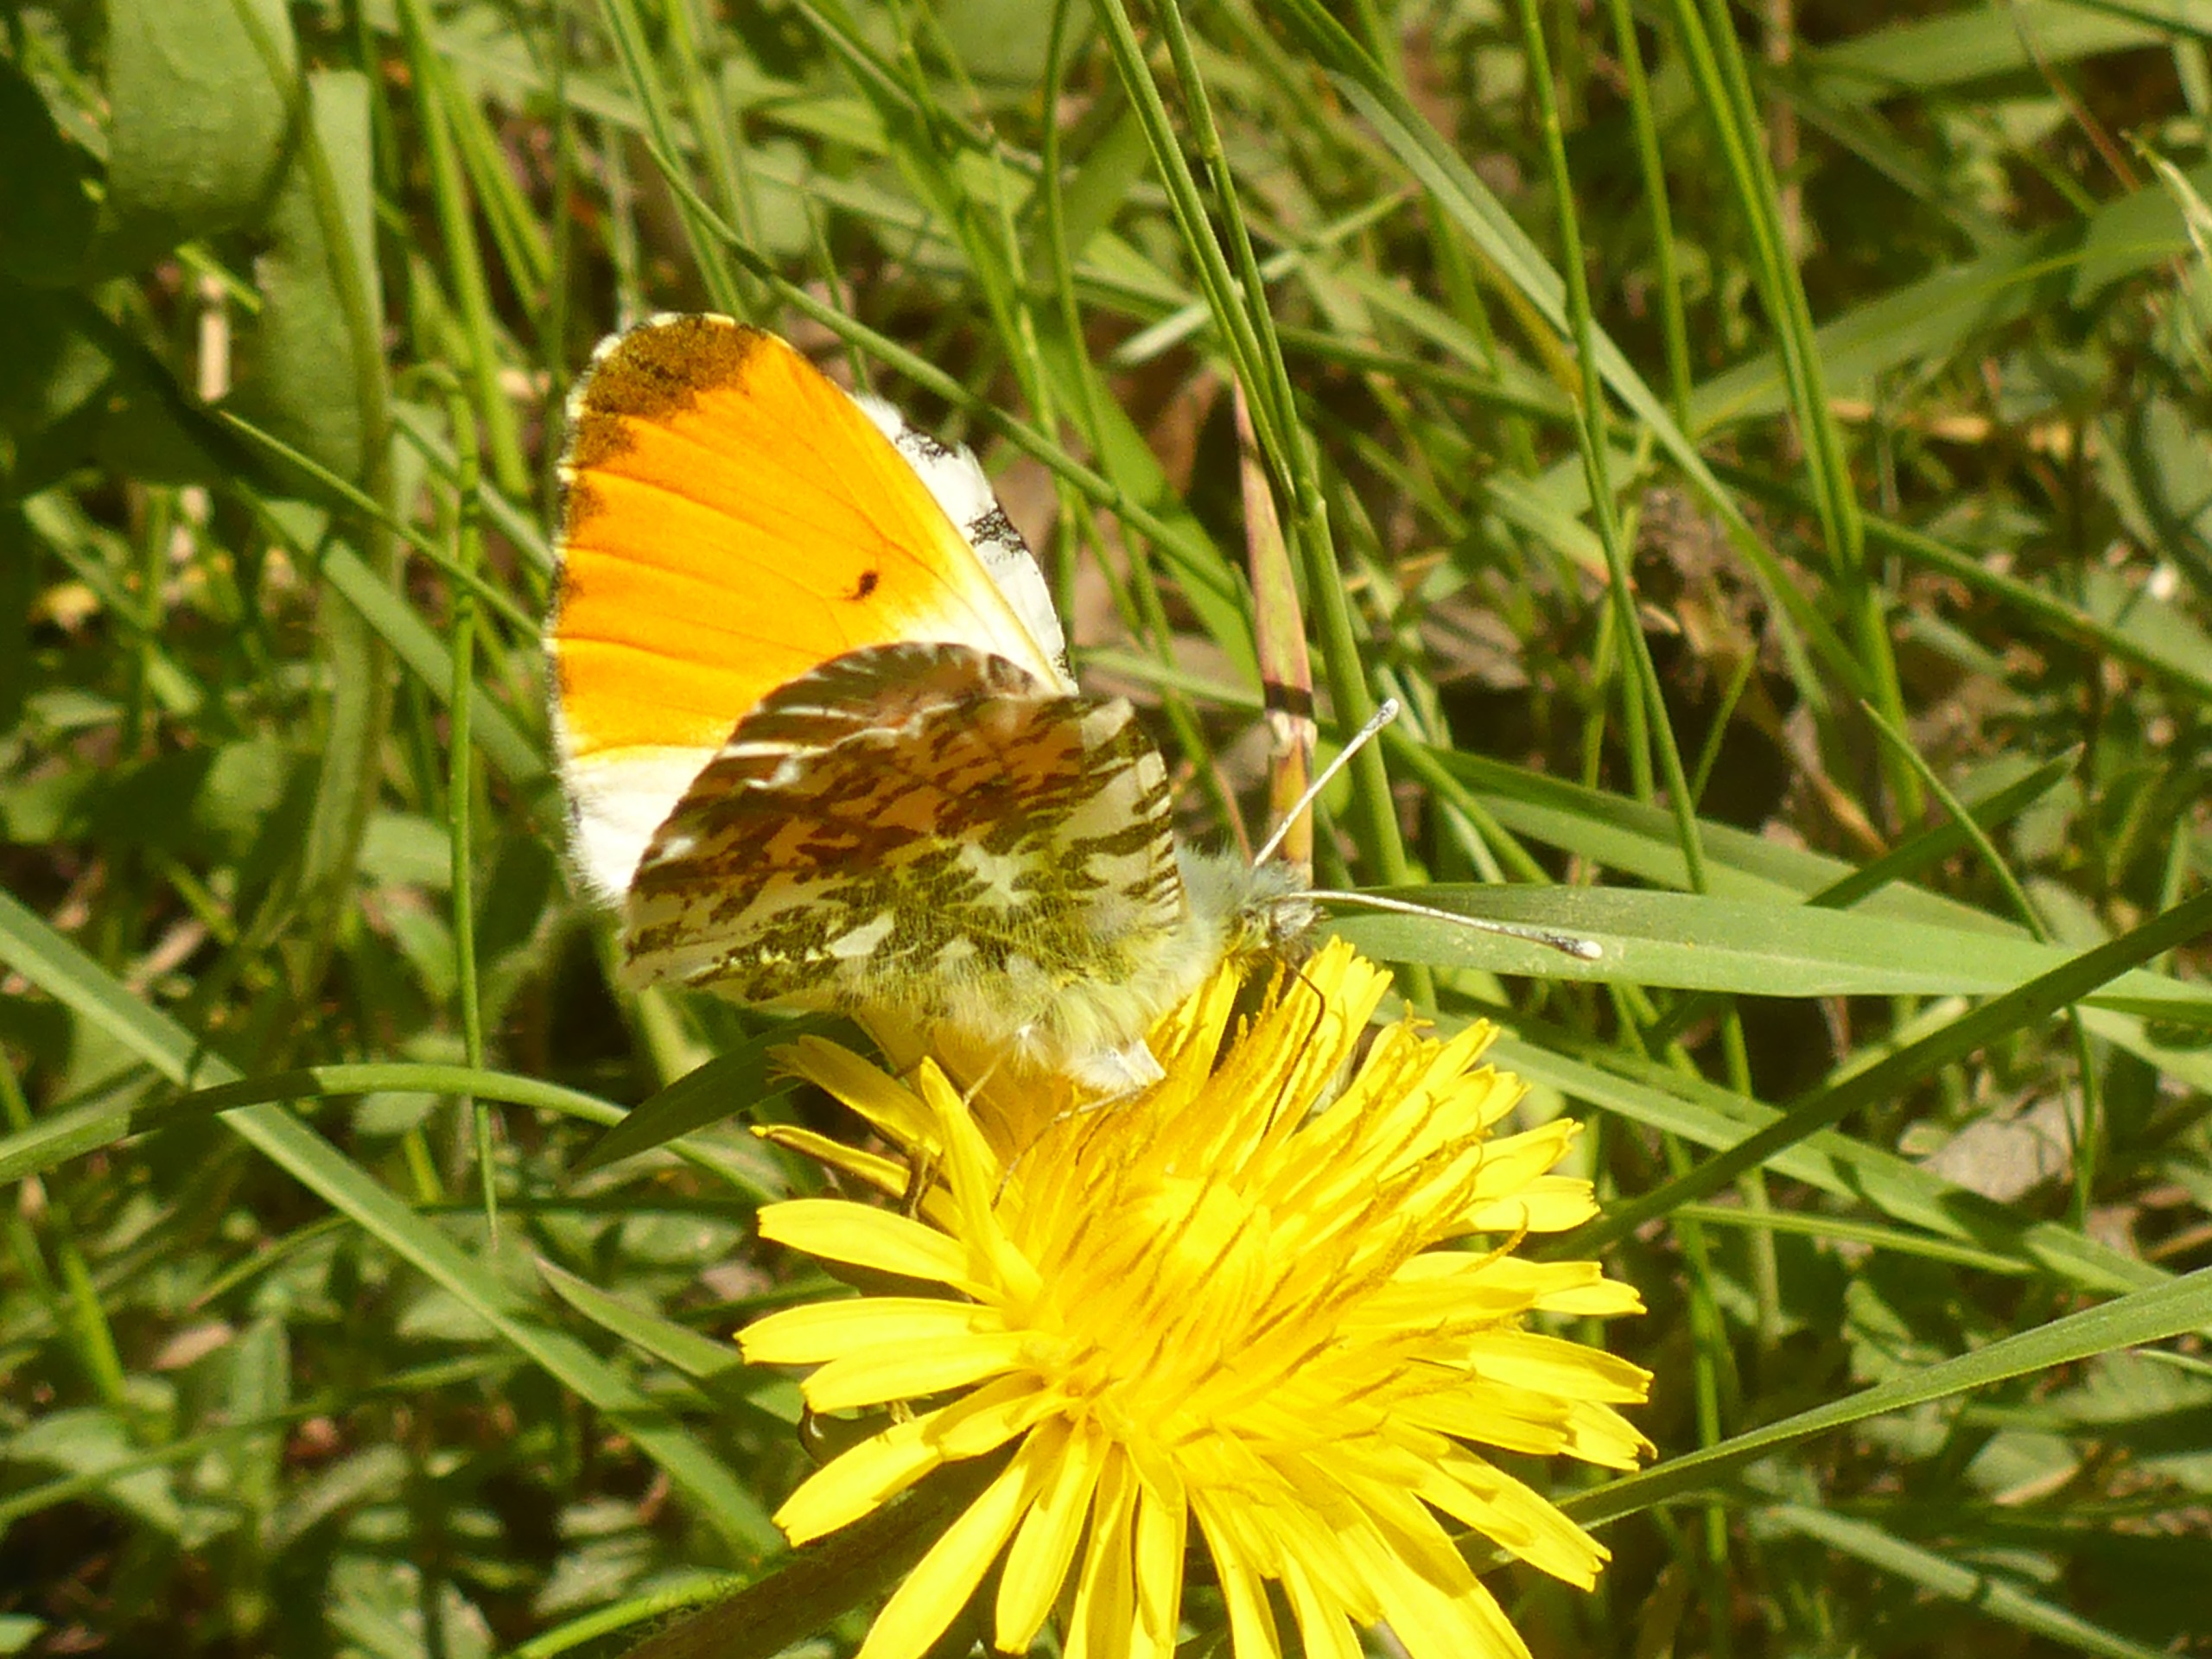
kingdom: Animalia
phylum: Arthropoda
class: Insecta
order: Lepidoptera
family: Pieridae
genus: Anthocharis
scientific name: Anthocharis cardamines
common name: Aurora
